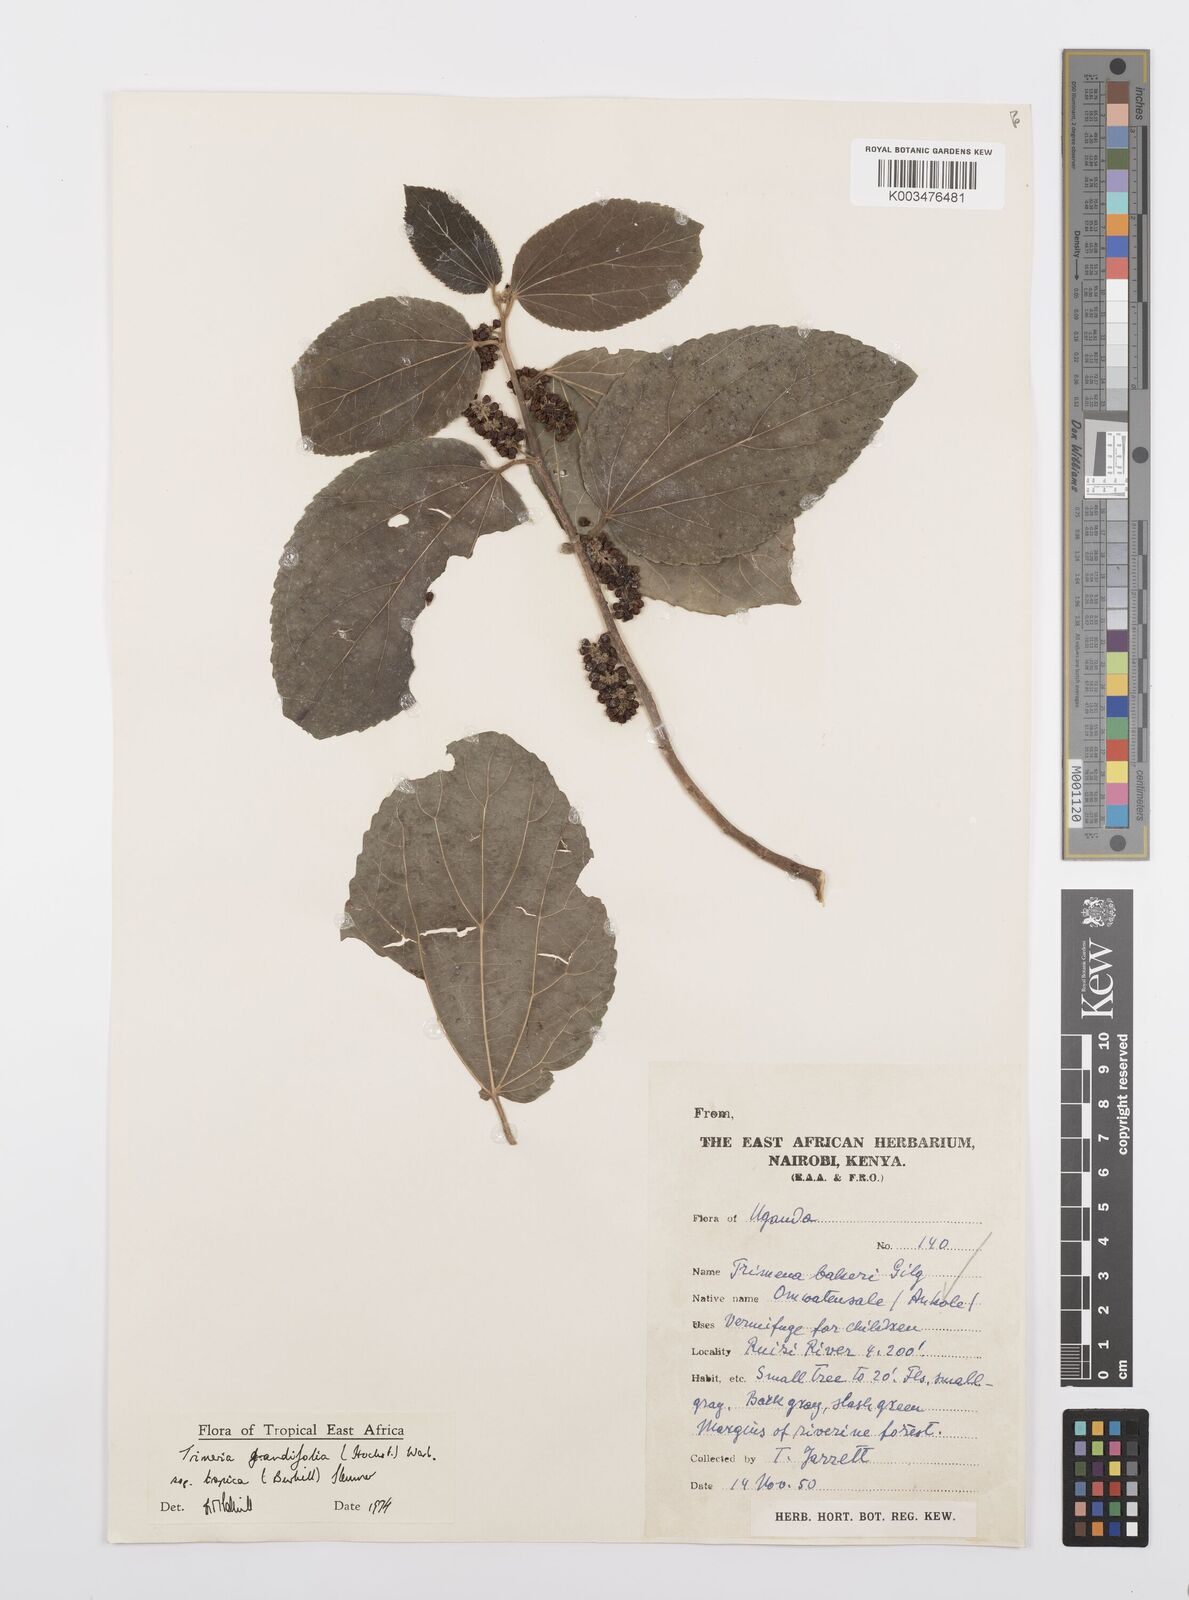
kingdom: Plantae
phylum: Tracheophyta
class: Magnoliopsida
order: Malpighiales
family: Salicaceae
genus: Trimeria
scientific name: Trimeria grandifolia
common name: Wild mulberry
